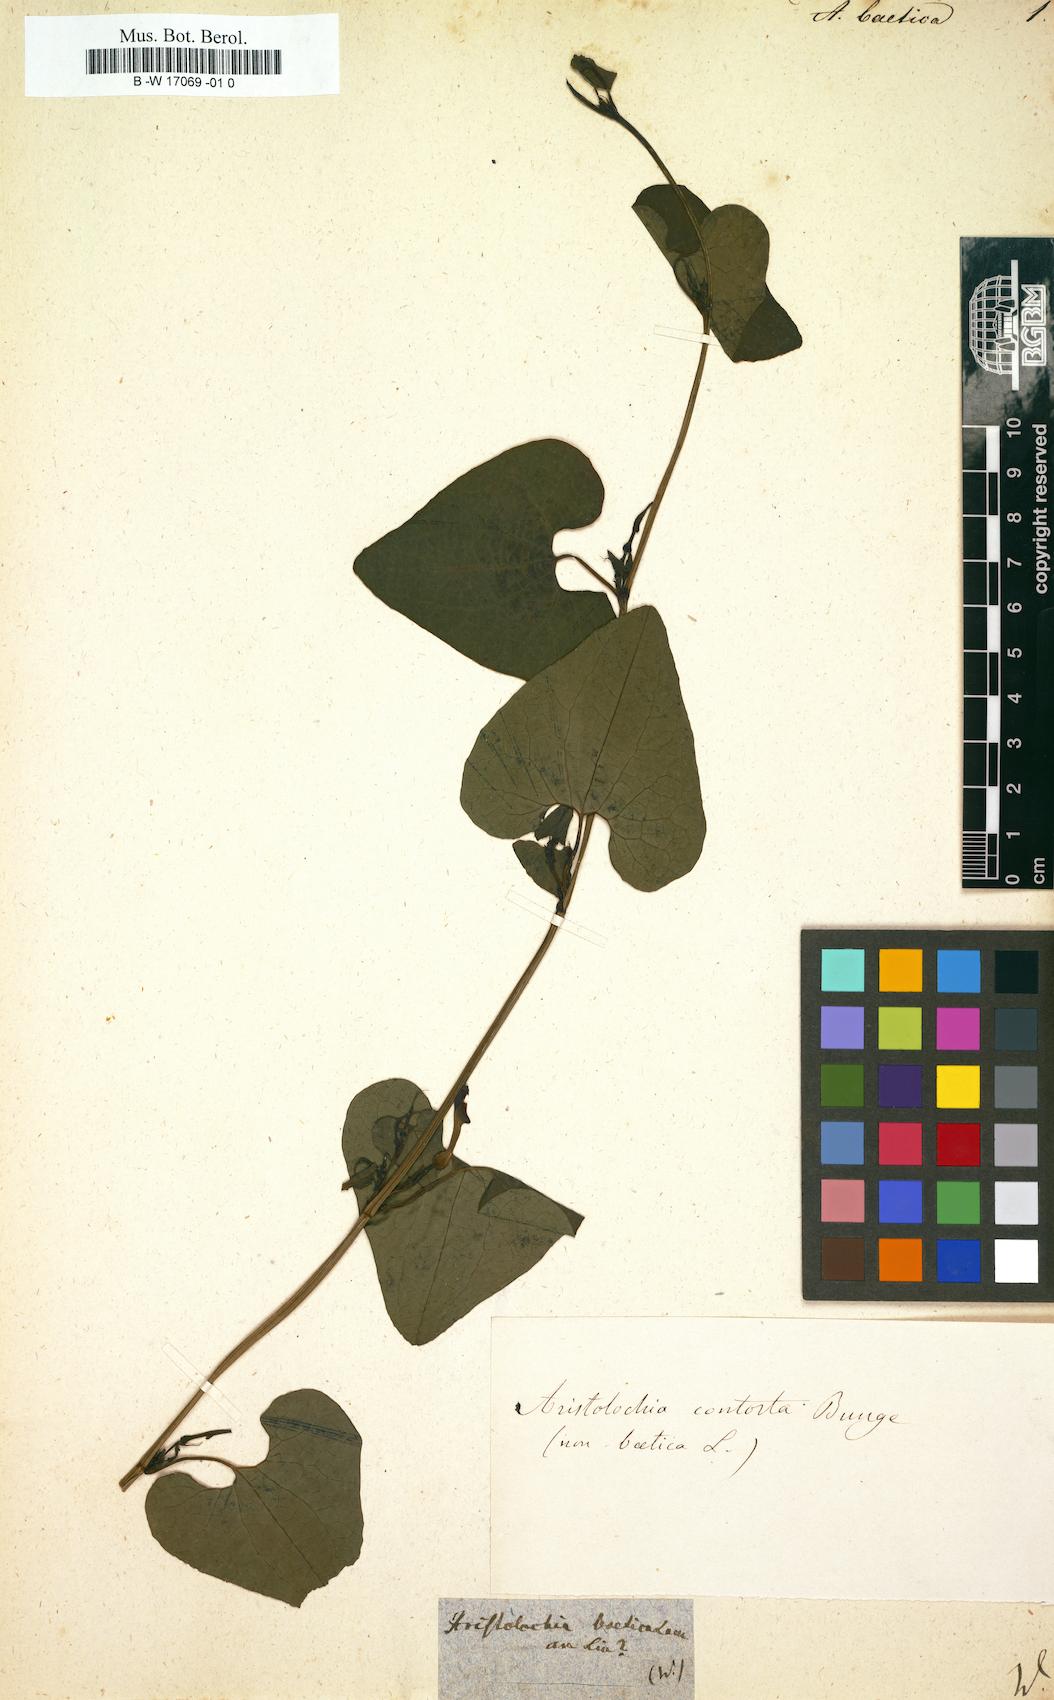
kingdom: Plantae
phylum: Tracheophyta
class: Magnoliopsida
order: Piperales
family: Aristolochiaceae
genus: Aristolochia
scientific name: Aristolochia baetica
